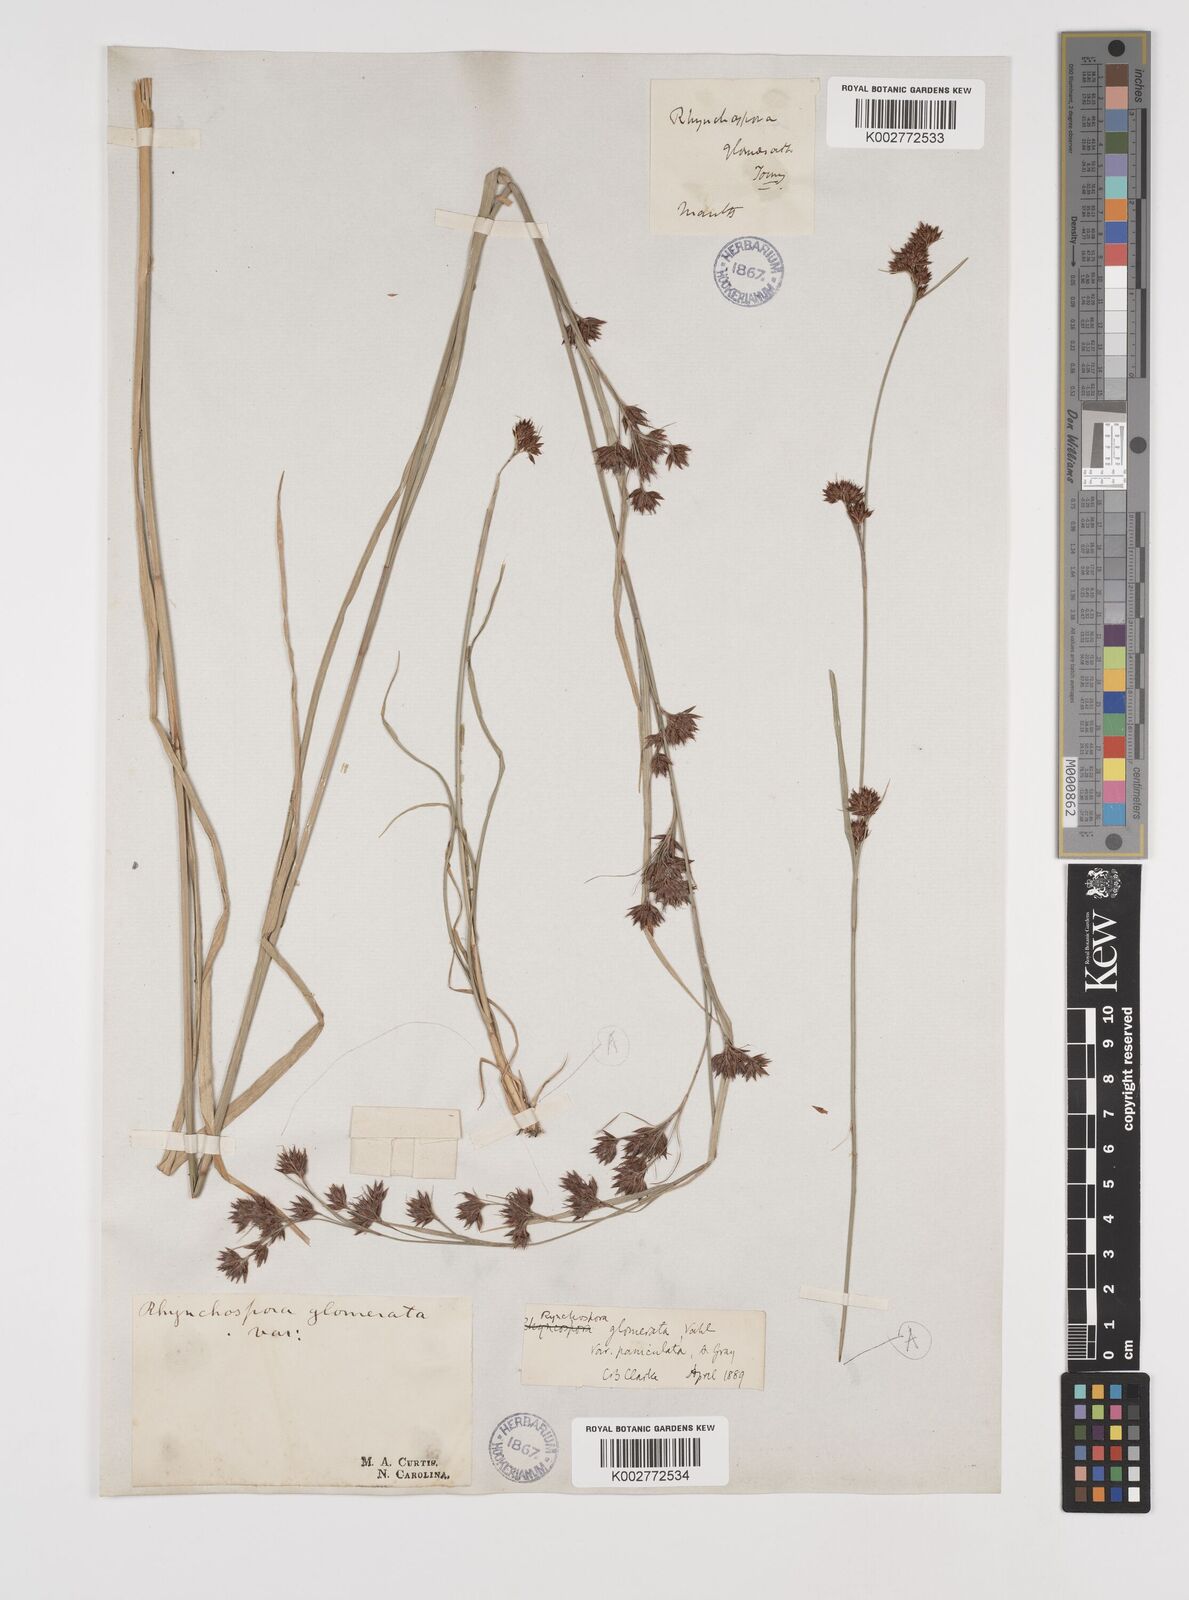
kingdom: Plantae
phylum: Tracheophyta
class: Liliopsida
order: Poales
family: Cyperaceae
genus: Rhynchospora
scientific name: Rhynchospora glomerata
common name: Cluster beak sedge
